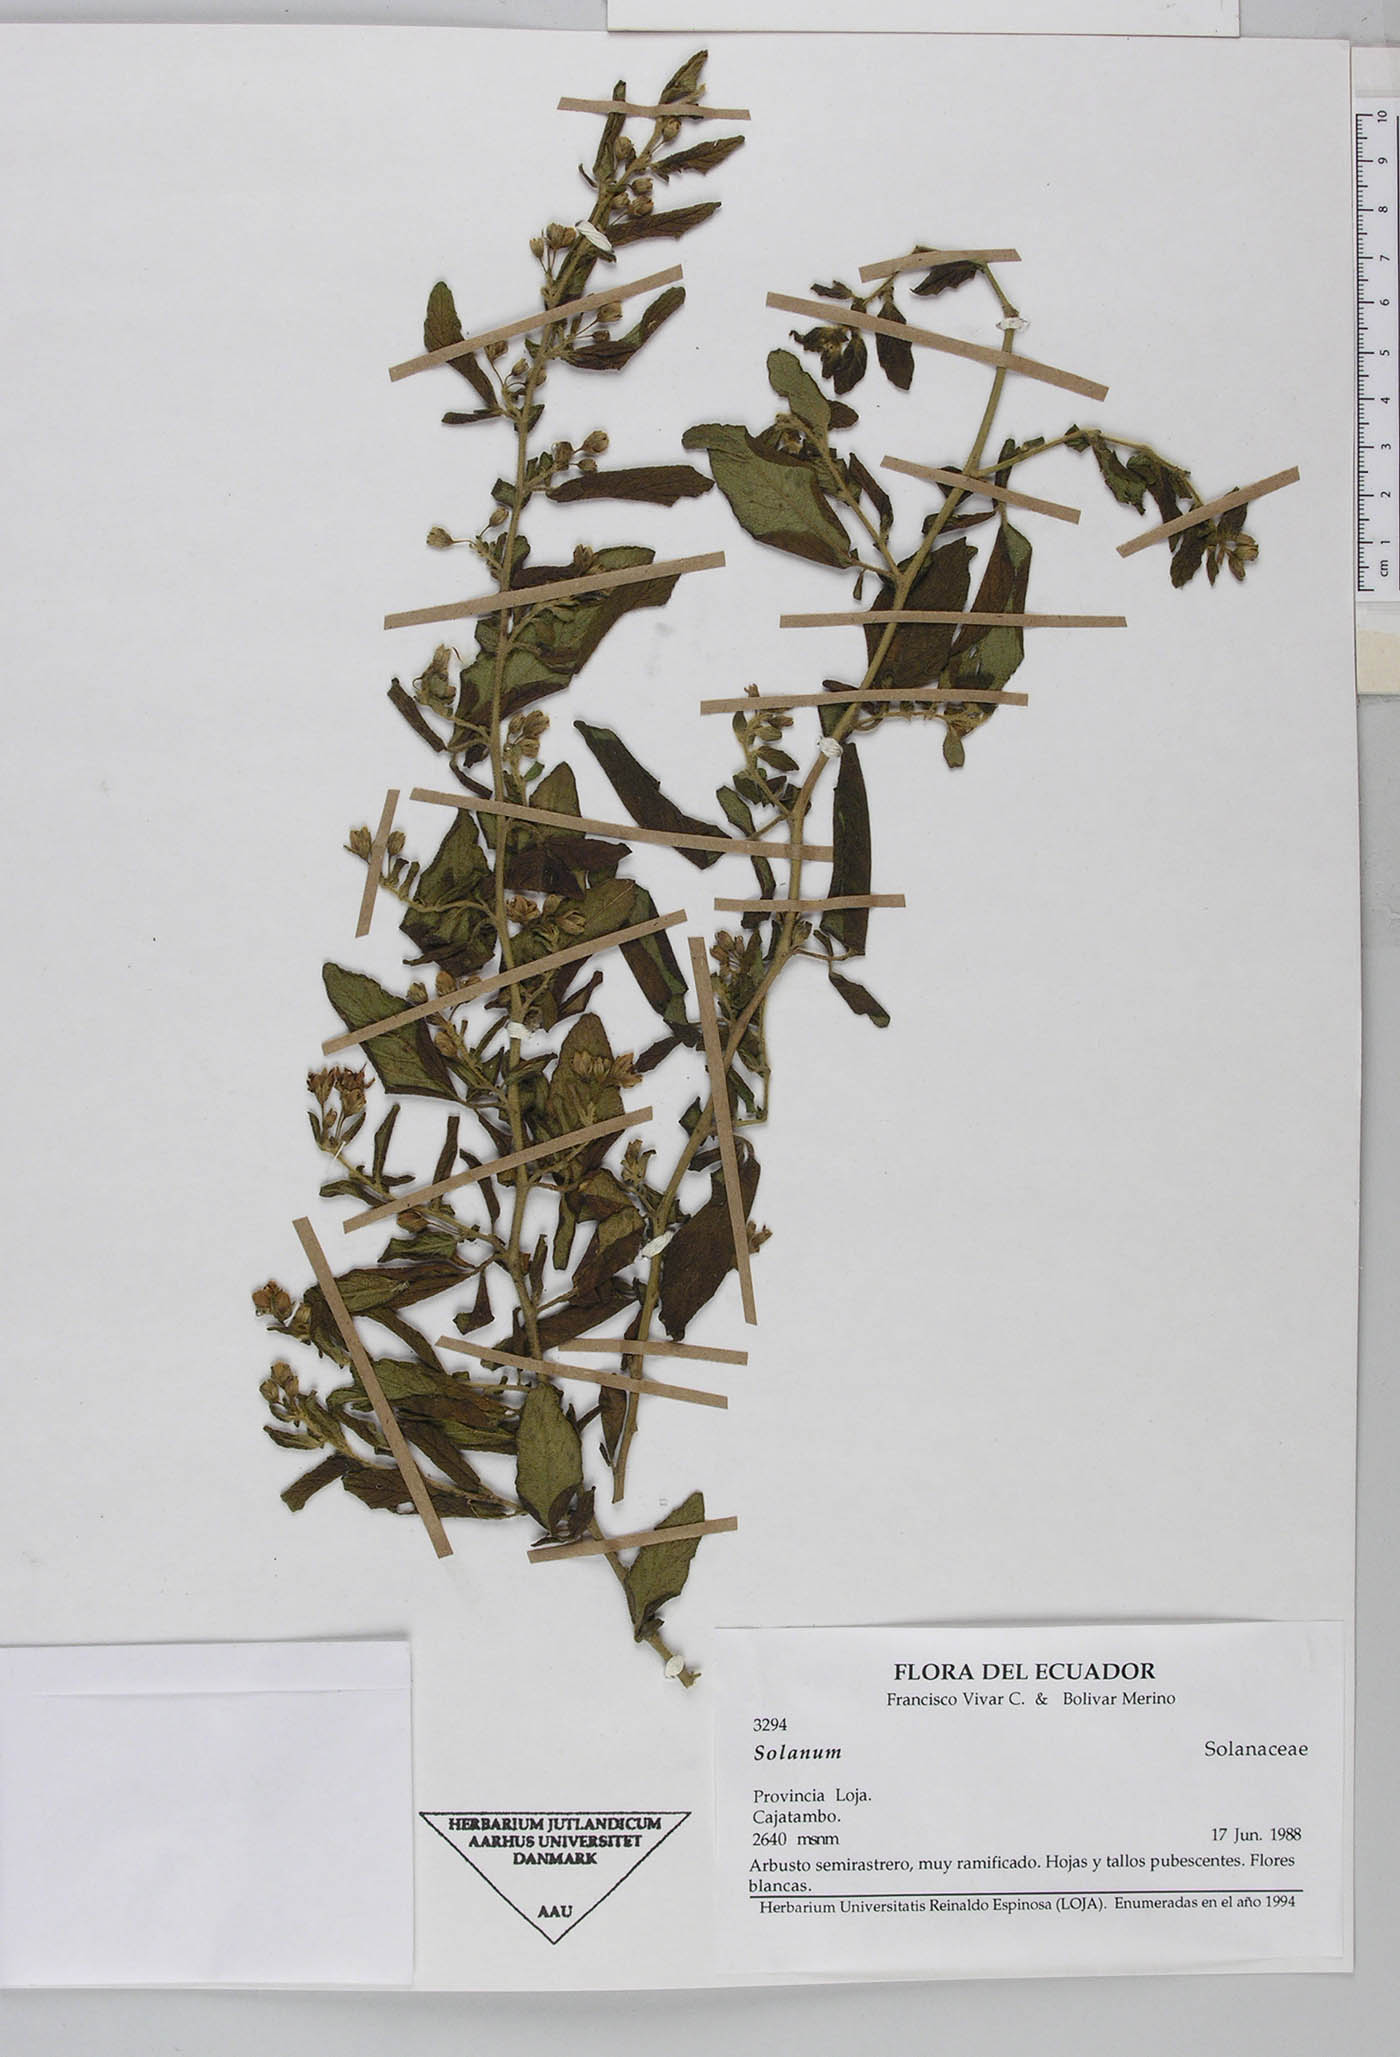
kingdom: Plantae
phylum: Tracheophyta
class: Magnoliopsida
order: Solanales
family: Solanaceae
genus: Solanum
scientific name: Solanum brevifolium
